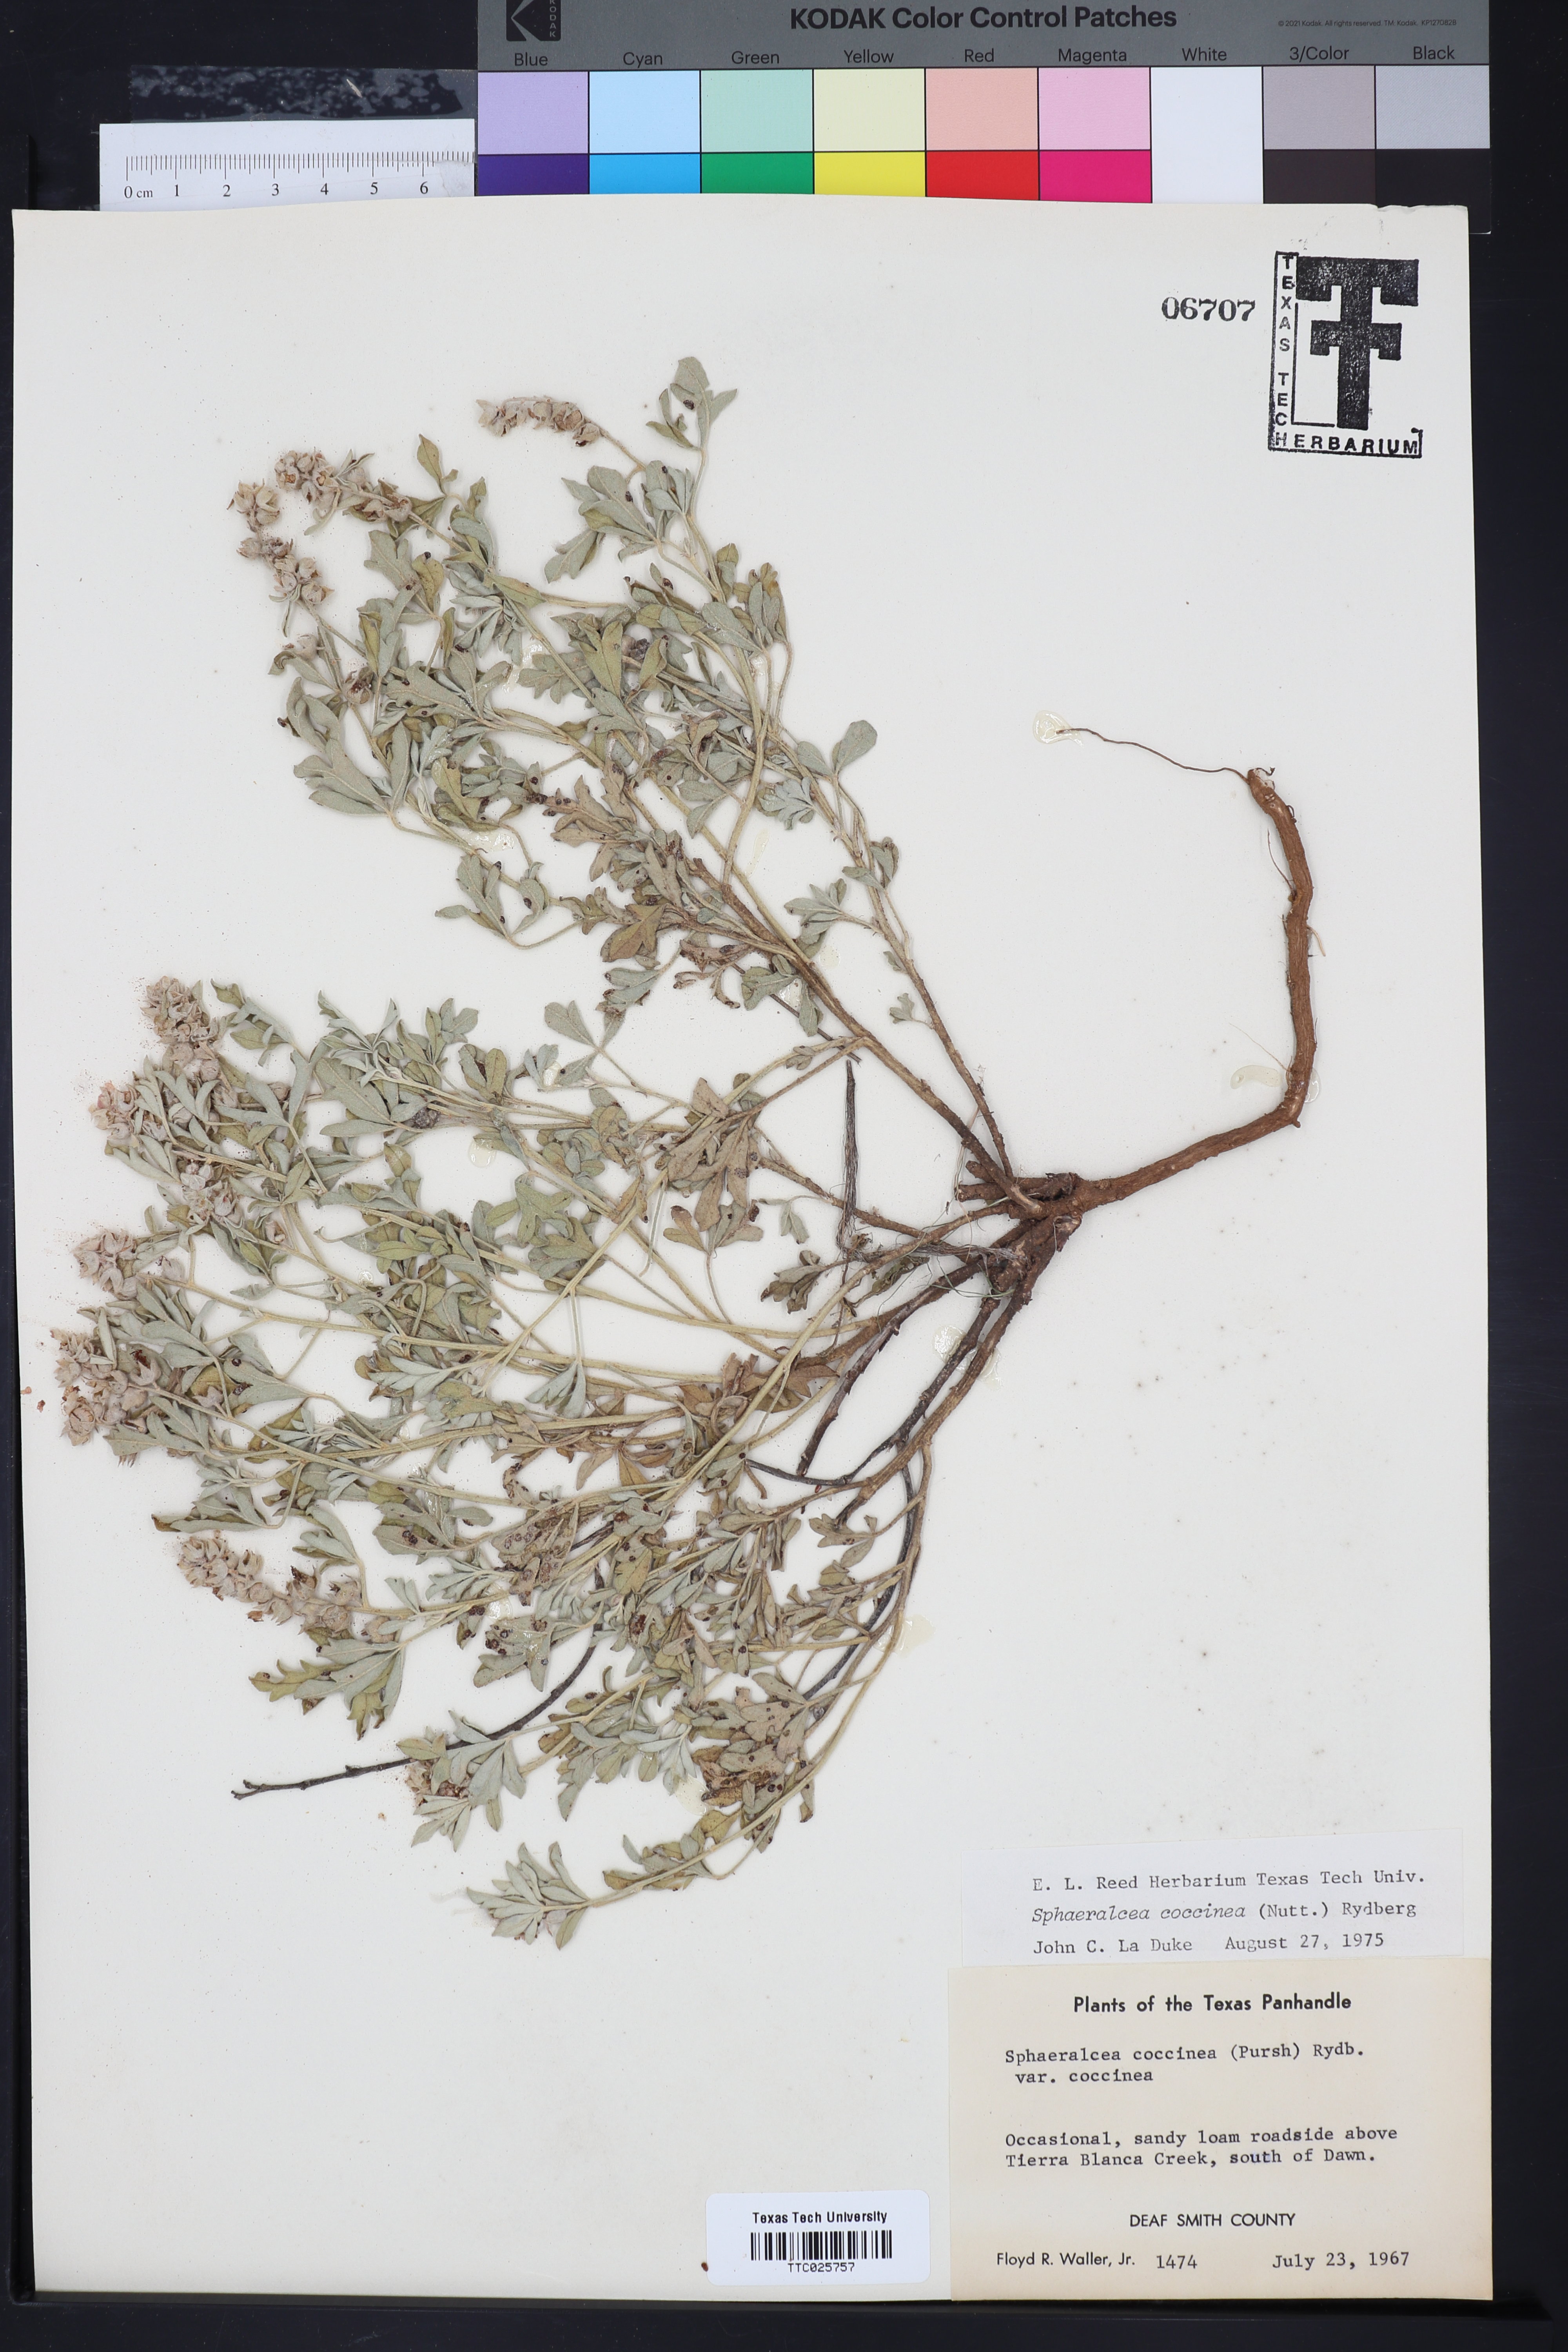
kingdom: Plantae
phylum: Tracheophyta
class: Magnoliopsida
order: Malvales
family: Malvaceae
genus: Sphaeralcea
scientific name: Sphaeralcea coccinea
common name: Moss-rose
